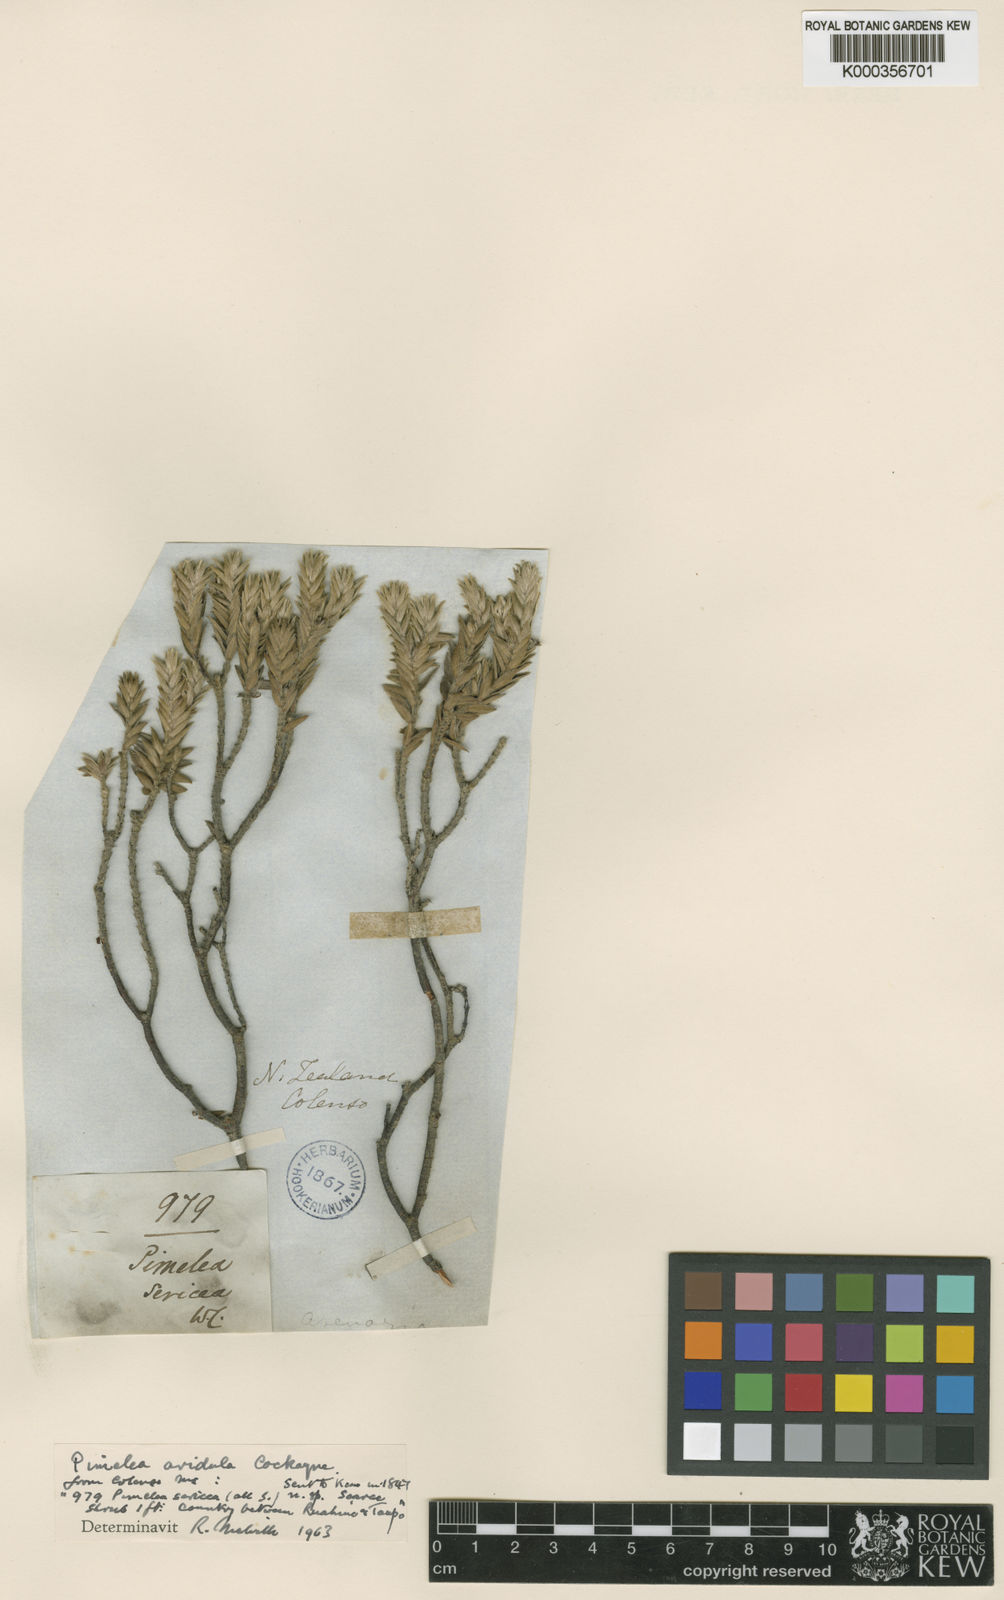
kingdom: Plantae
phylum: Tracheophyta
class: Magnoliopsida
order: Malvales
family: Thymelaeaceae
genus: Pimelea
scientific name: Pimelea
